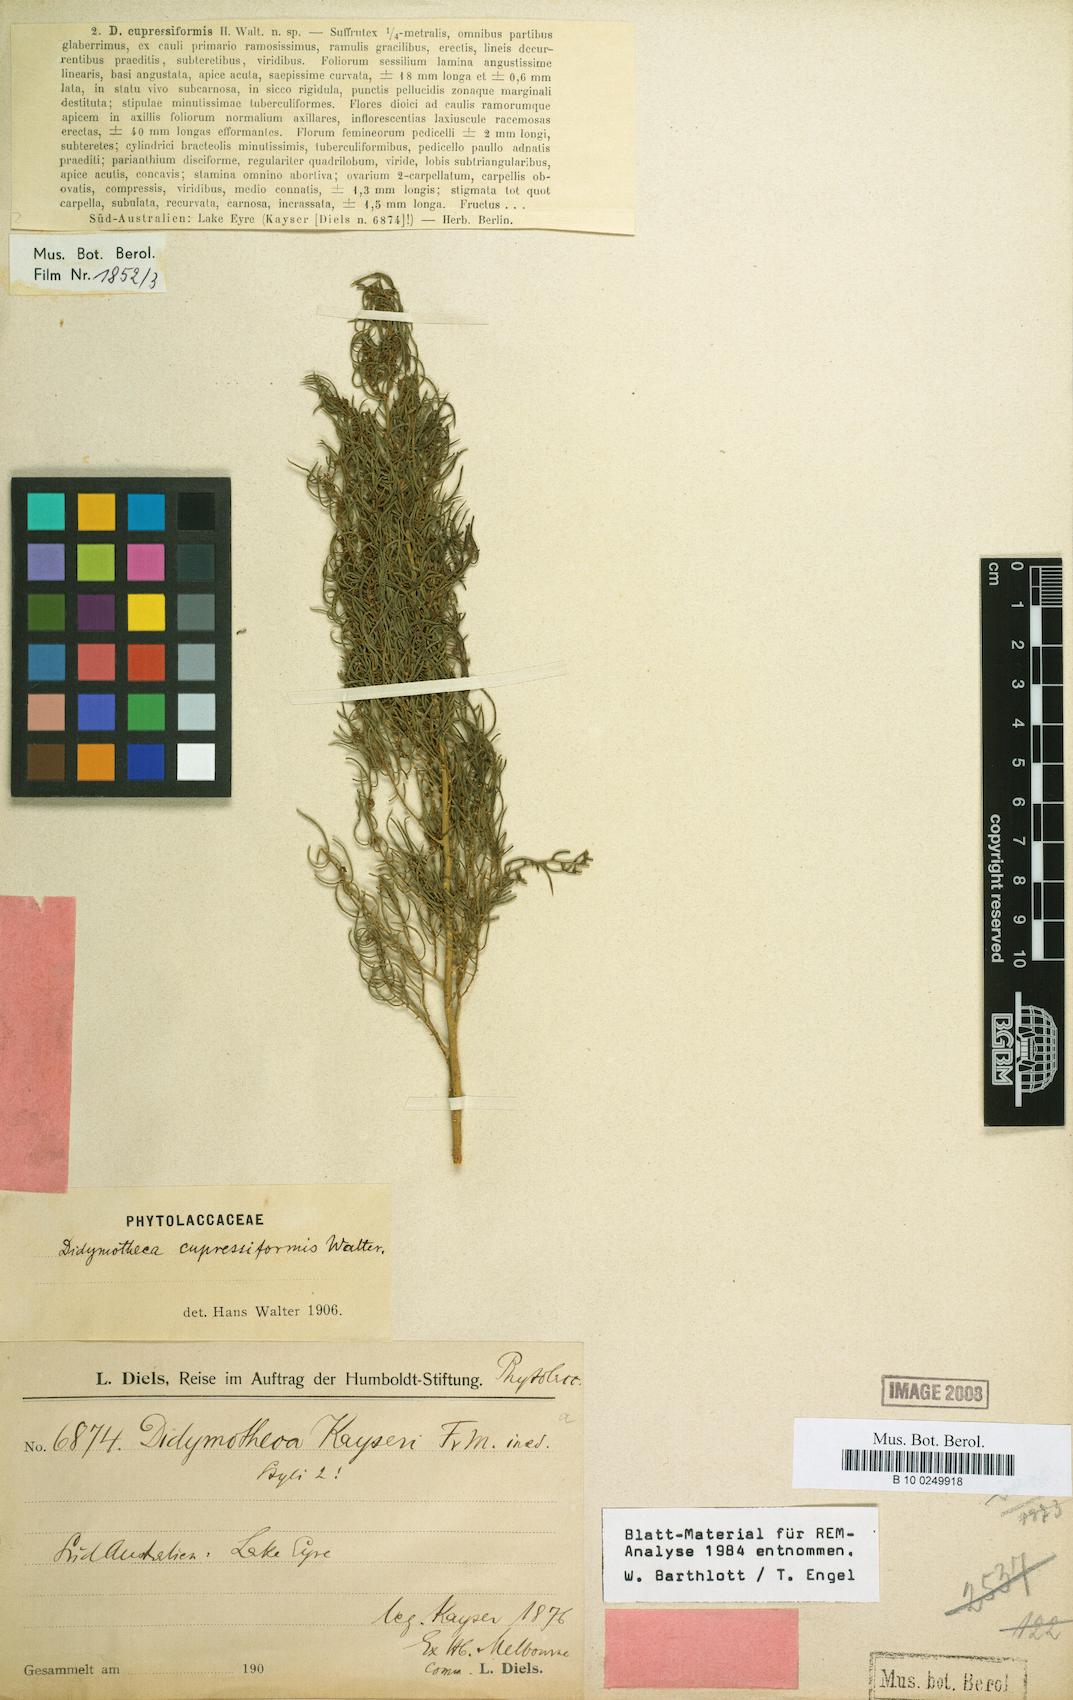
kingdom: Plantae
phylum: Tracheophyta
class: Magnoliopsida
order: Brassicales
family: Gyrostemonaceae
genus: Gyrostemon
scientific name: Gyrostemon tepperi
